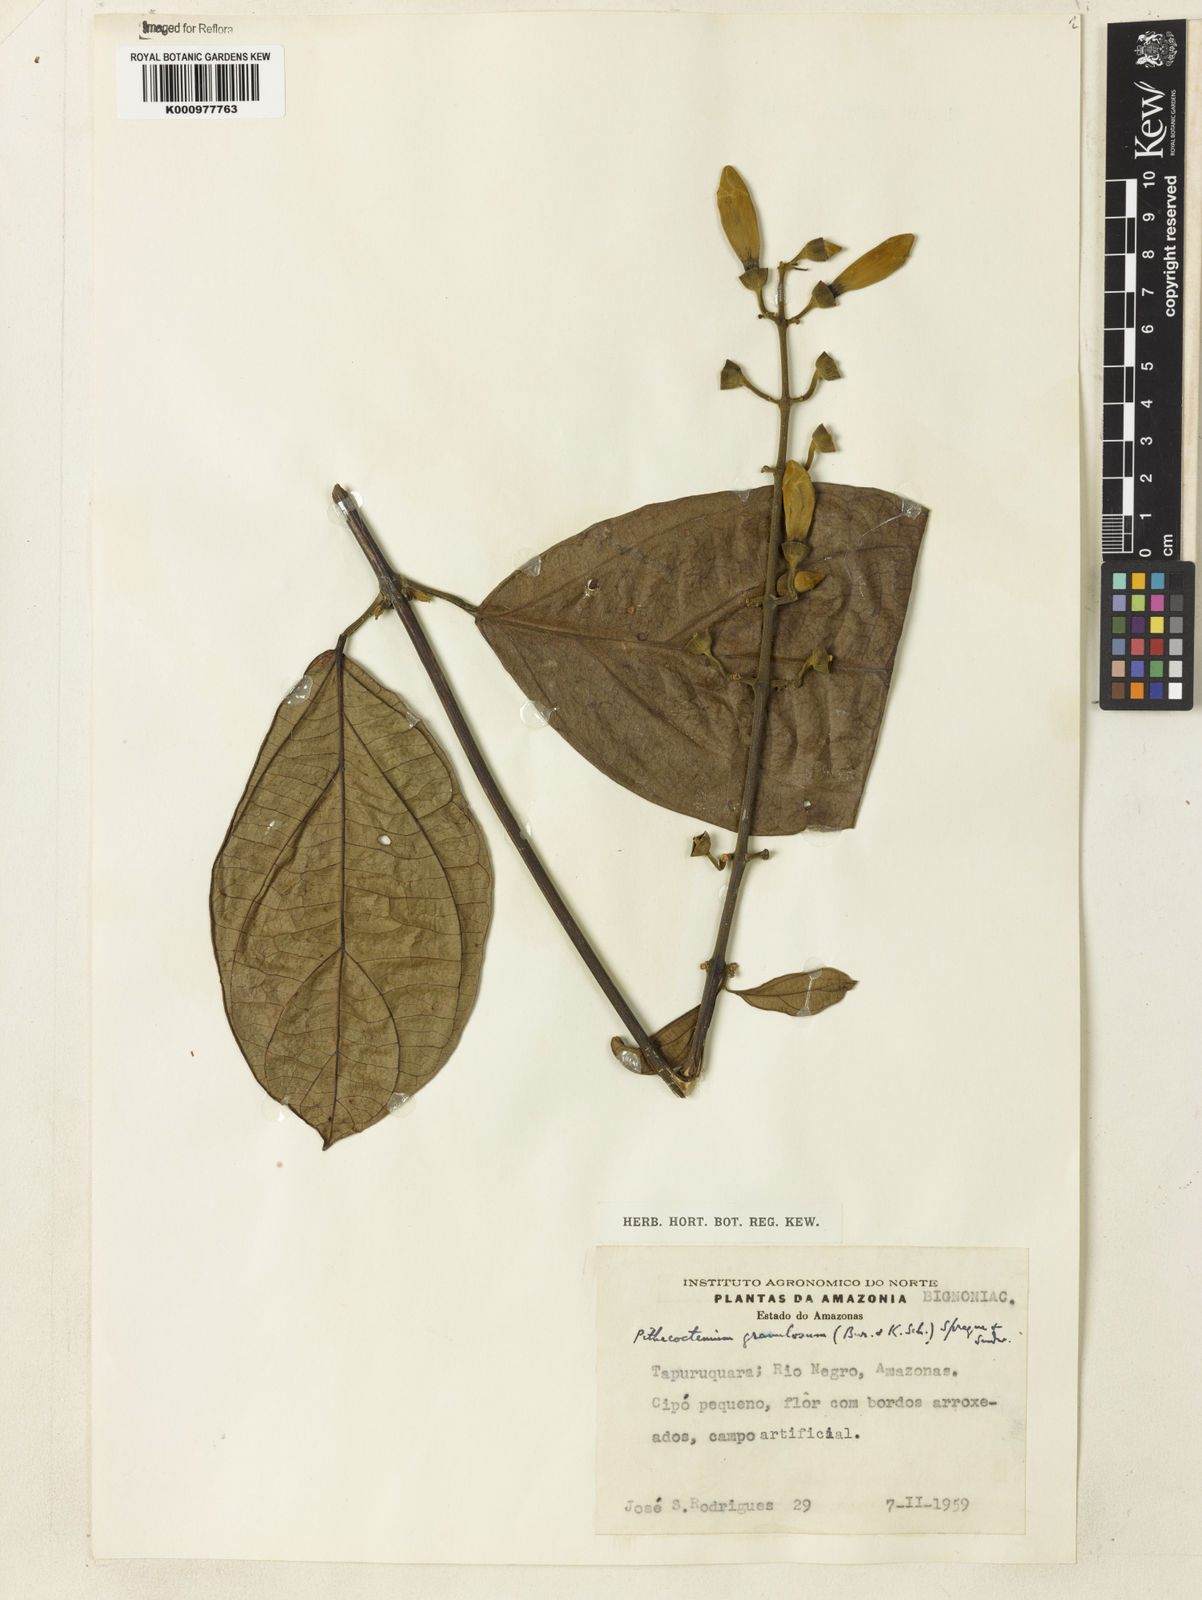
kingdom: Plantae
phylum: Tracheophyta
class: Magnoliopsida
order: Lamiales
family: Bignoniaceae
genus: Amphilophium
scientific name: Amphilophium granulosum
